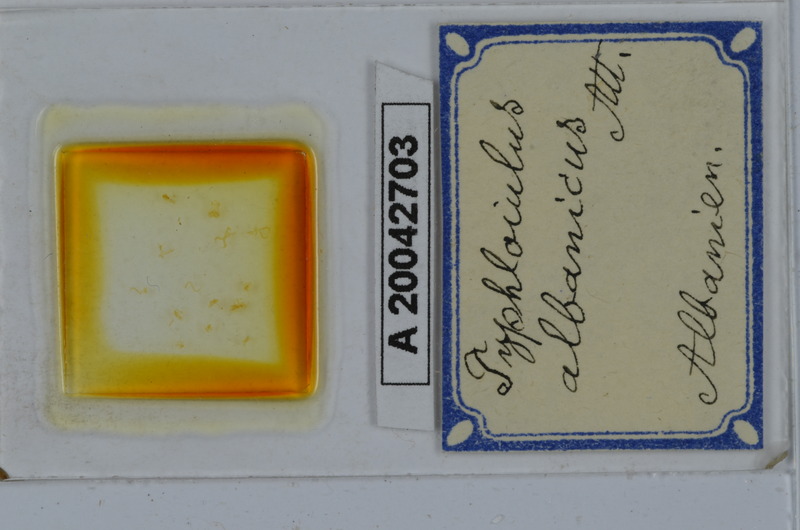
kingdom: Animalia
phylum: Arthropoda
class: Diplopoda
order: Julida
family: Julidae
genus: Typhloiulus
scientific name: Typhloiulus albanicus
